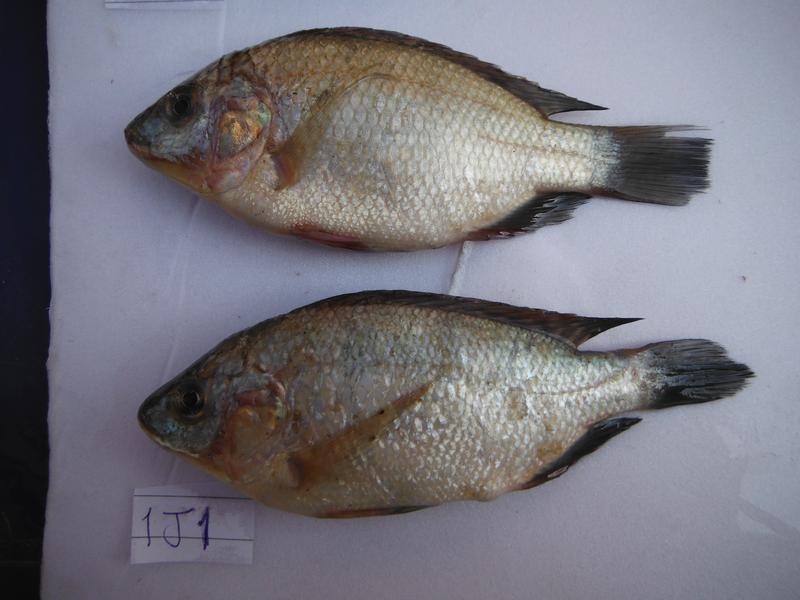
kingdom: Animalia
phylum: Chordata
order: Perciformes
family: Cichlidae
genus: Oreochromis
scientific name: Oreochromis rukwaensis
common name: Lake rukwa tilapia
